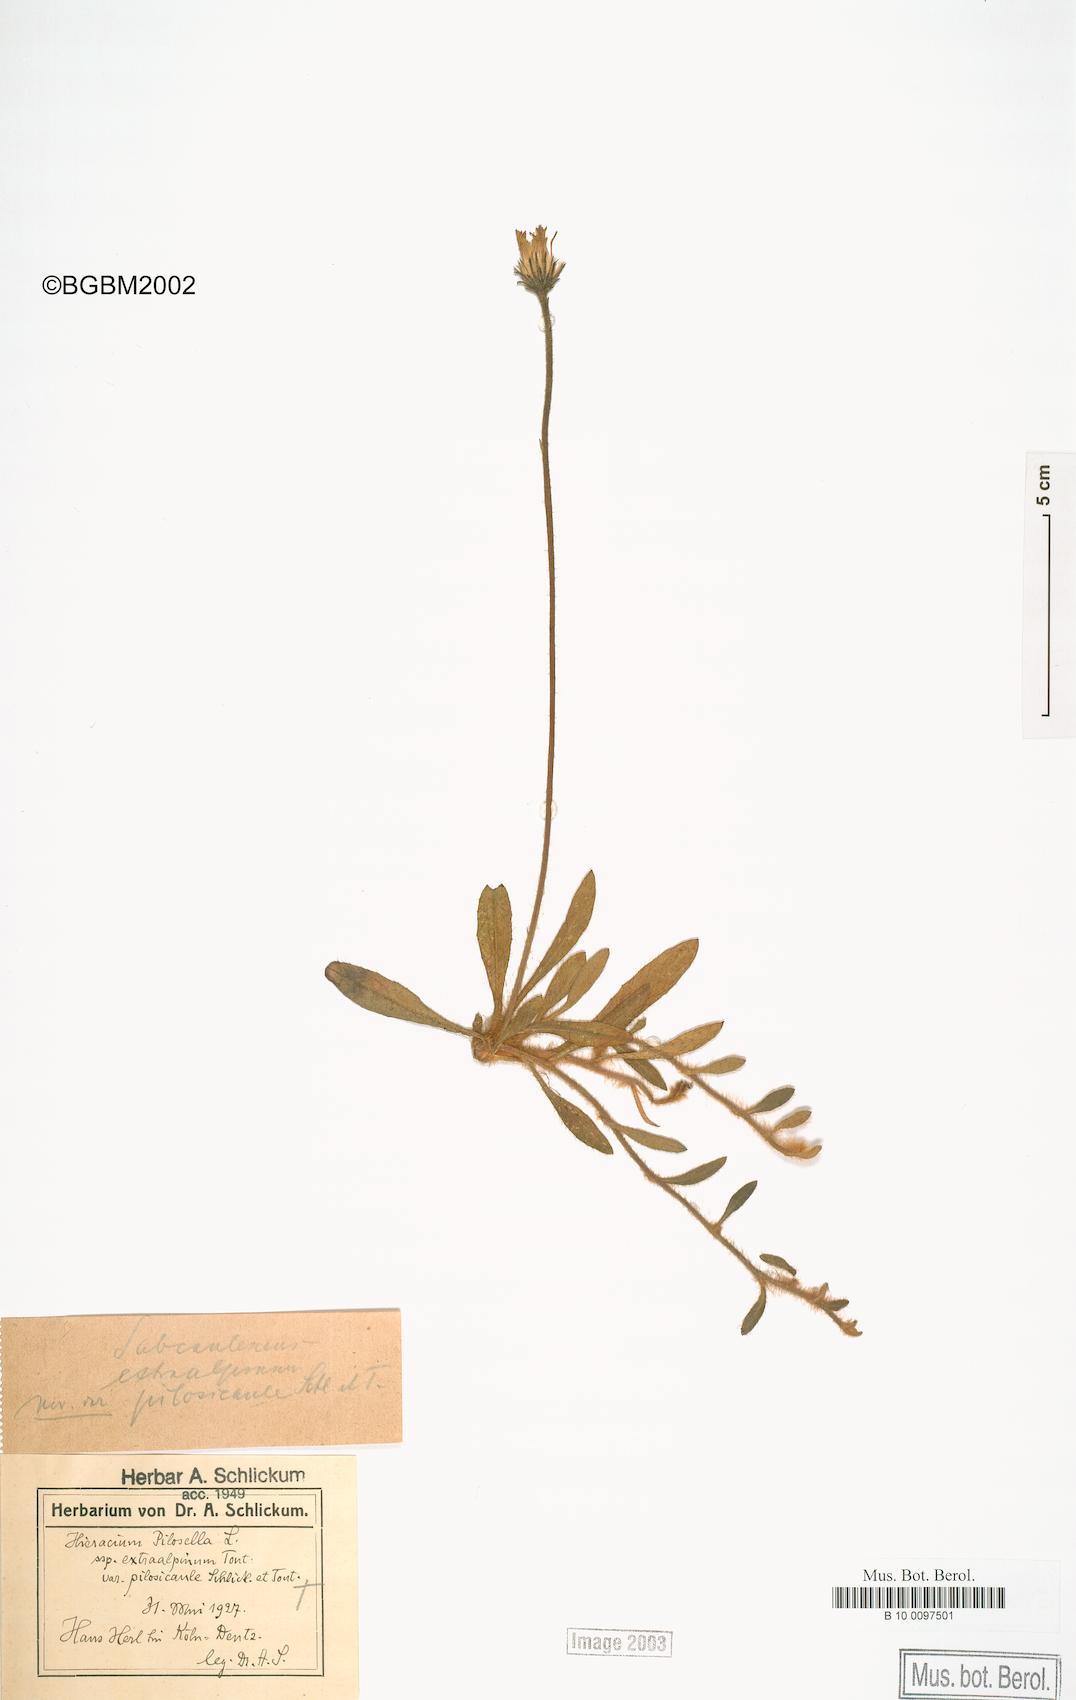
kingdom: Plantae
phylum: Tracheophyta
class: Magnoliopsida
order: Asterales
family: Asteraceae
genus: Pilosella
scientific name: Pilosella officinarum
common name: Mouse-ear hawkweed
